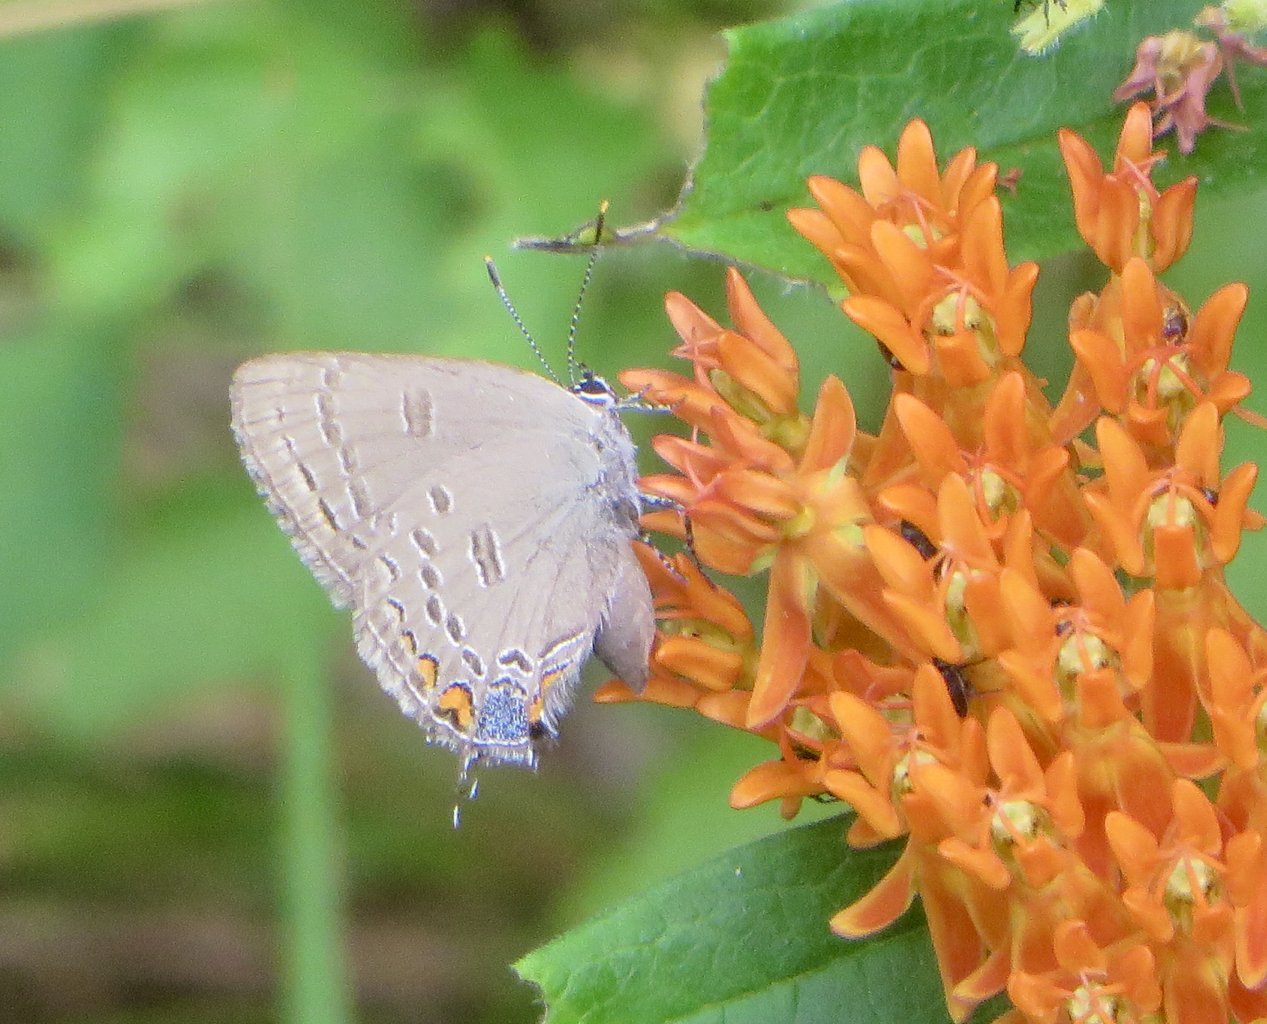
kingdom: Animalia
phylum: Arthropoda
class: Insecta
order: Lepidoptera
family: Lycaenidae
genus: Satyrium
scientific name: Satyrium edwardsii
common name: Edwards' Hairstreak
